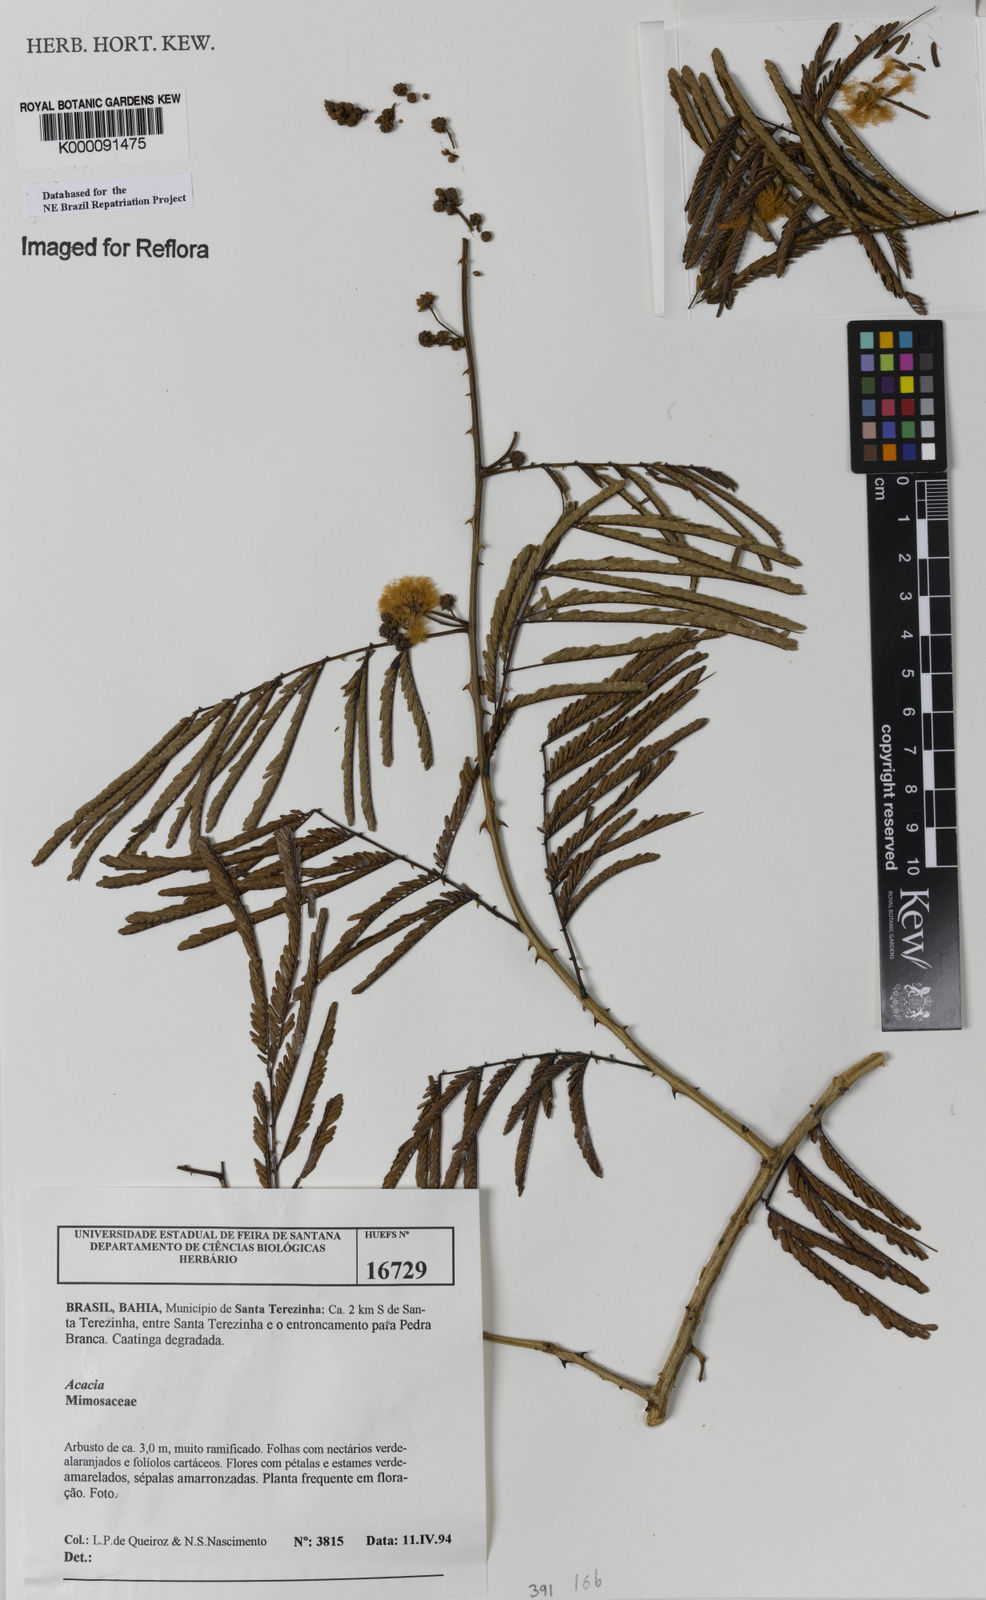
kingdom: Plantae
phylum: Tracheophyta
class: Magnoliopsida
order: Fabales
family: Fabaceae
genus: Acacia
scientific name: Acacia
